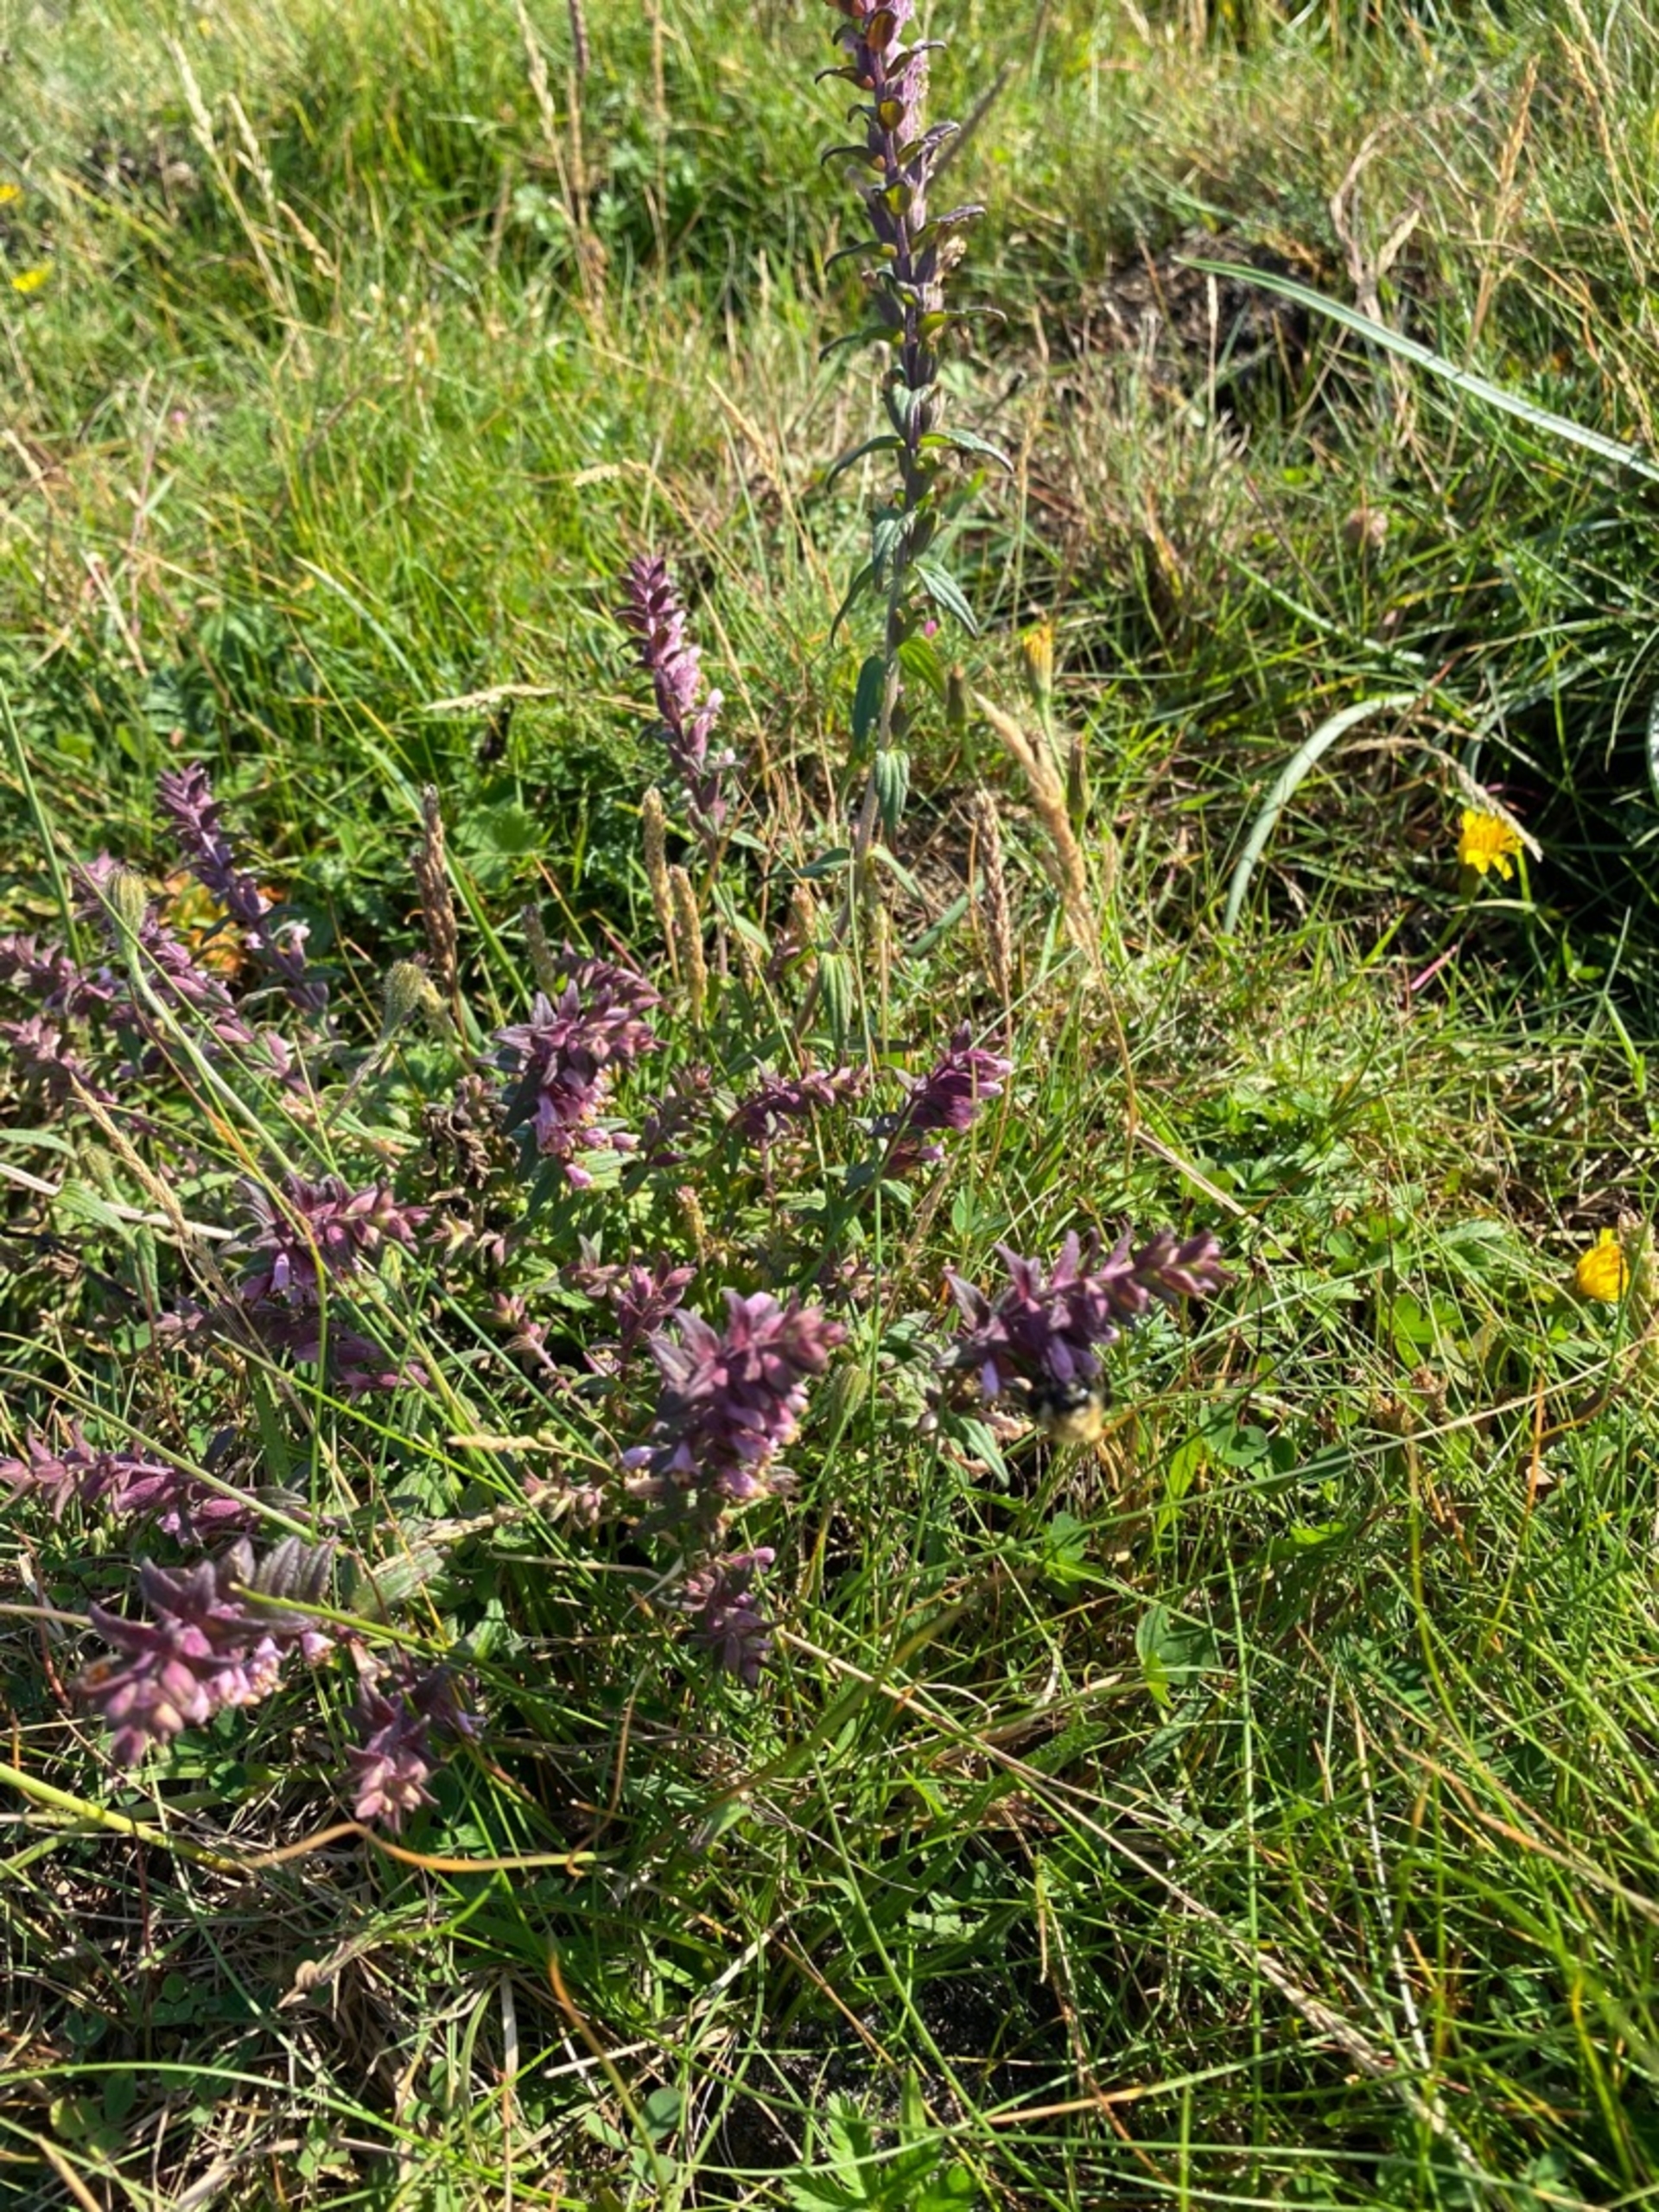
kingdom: Plantae
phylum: Tracheophyta
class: Magnoliopsida
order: Lamiales
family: Orobanchaceae
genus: Odontites
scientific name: Odontites vulgaris
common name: Høst-rødtop
